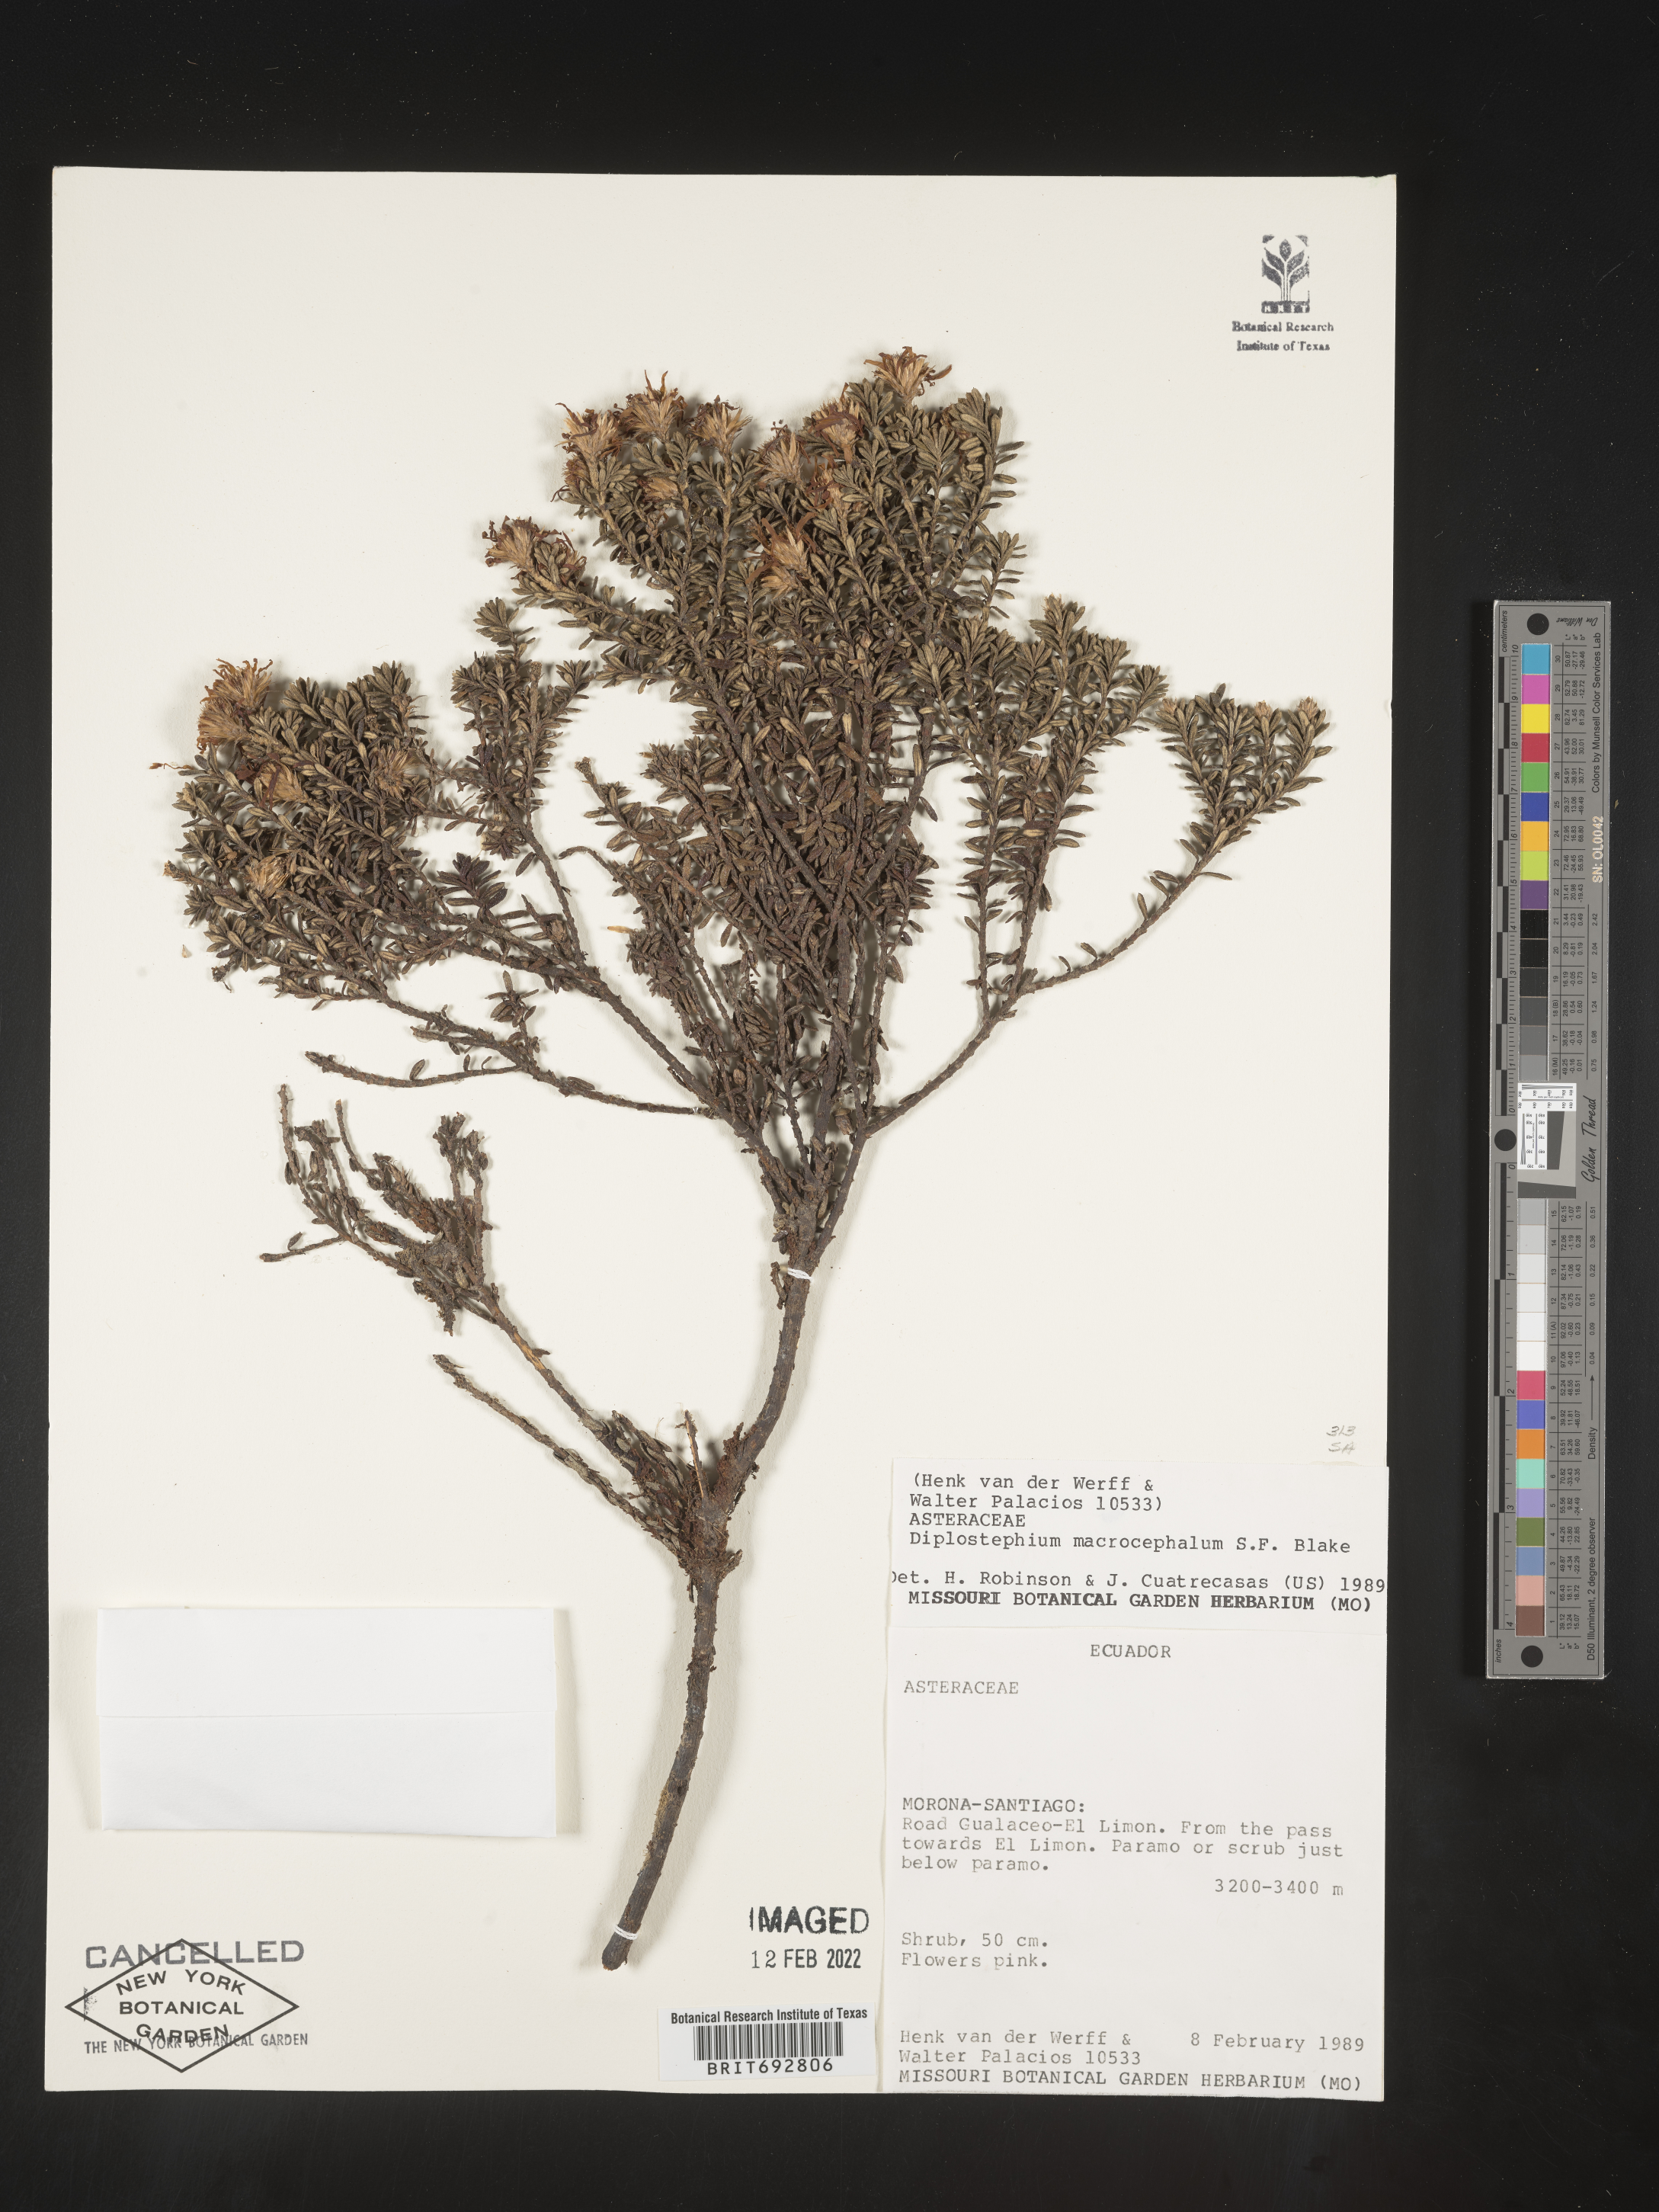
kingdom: Plantae
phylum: Tracheophyta
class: Magnoliopsida
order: Asterales
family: Asteraceae
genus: Diplostephium
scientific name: Diplostephium
